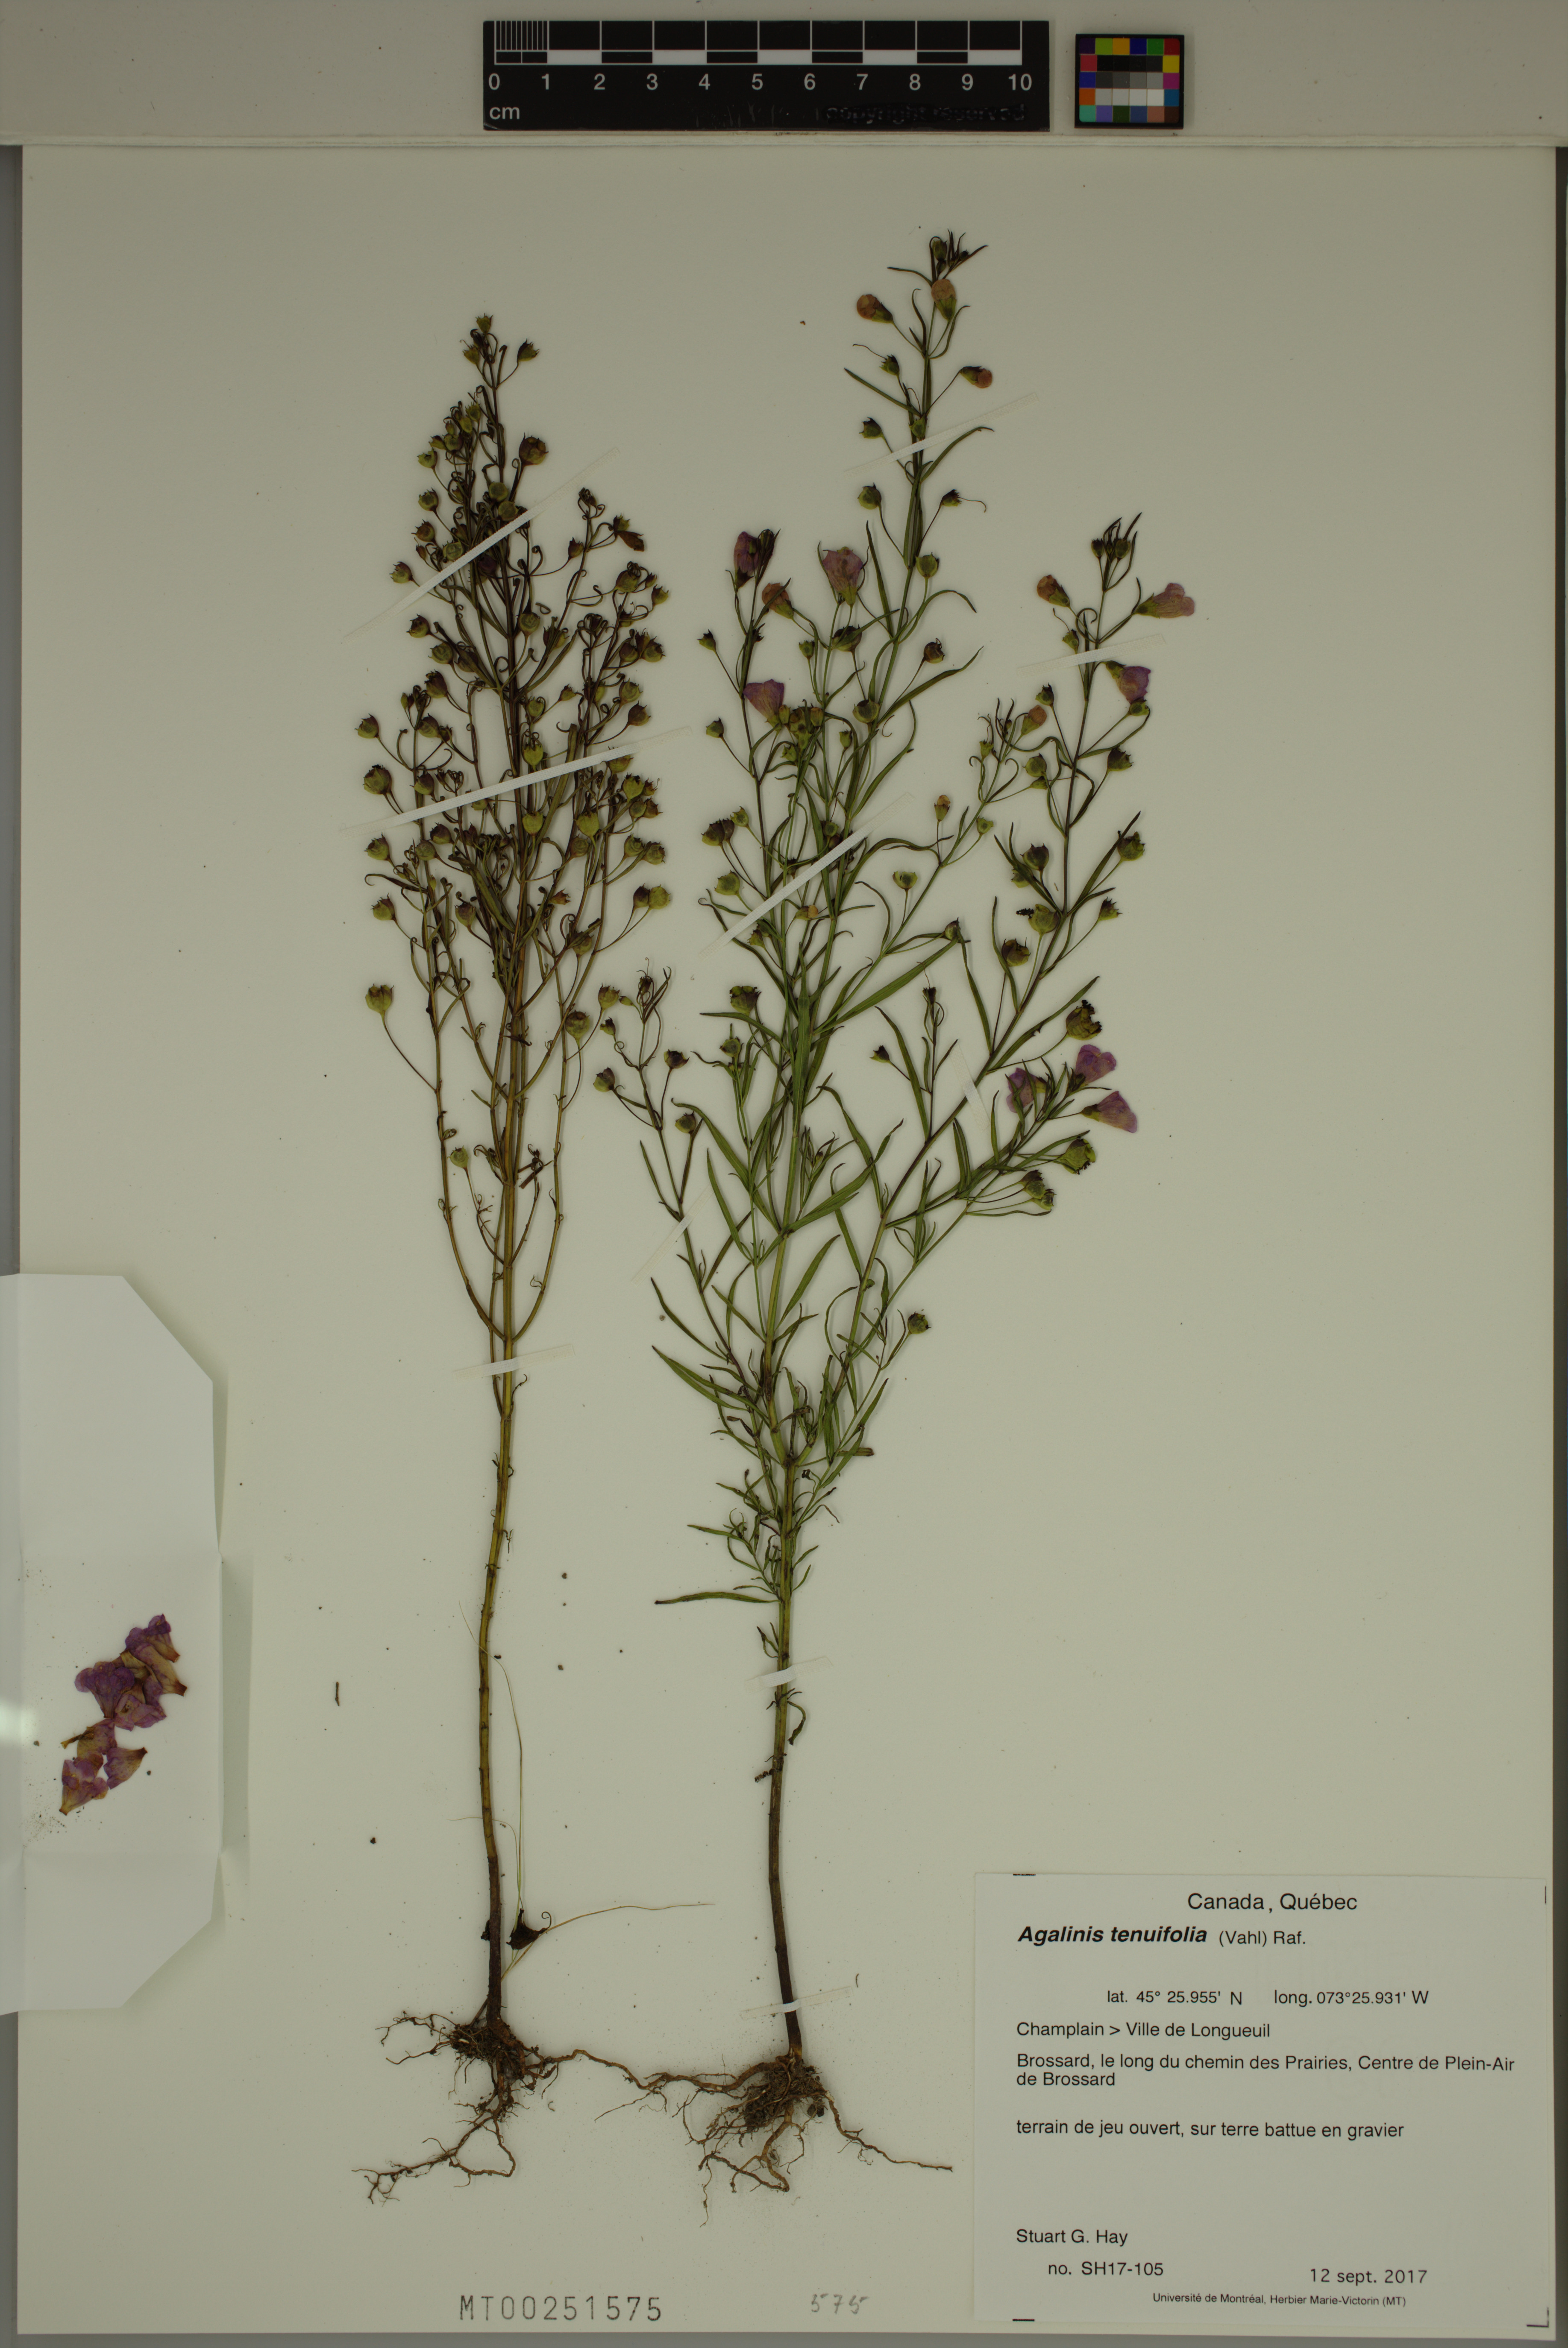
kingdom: Plantae
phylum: Tracheophyta
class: Magnoliopsida
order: Lamiales
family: Orobanchaceae
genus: Agalinis
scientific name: Agalinis tenuifolia
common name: Slender agalinis
